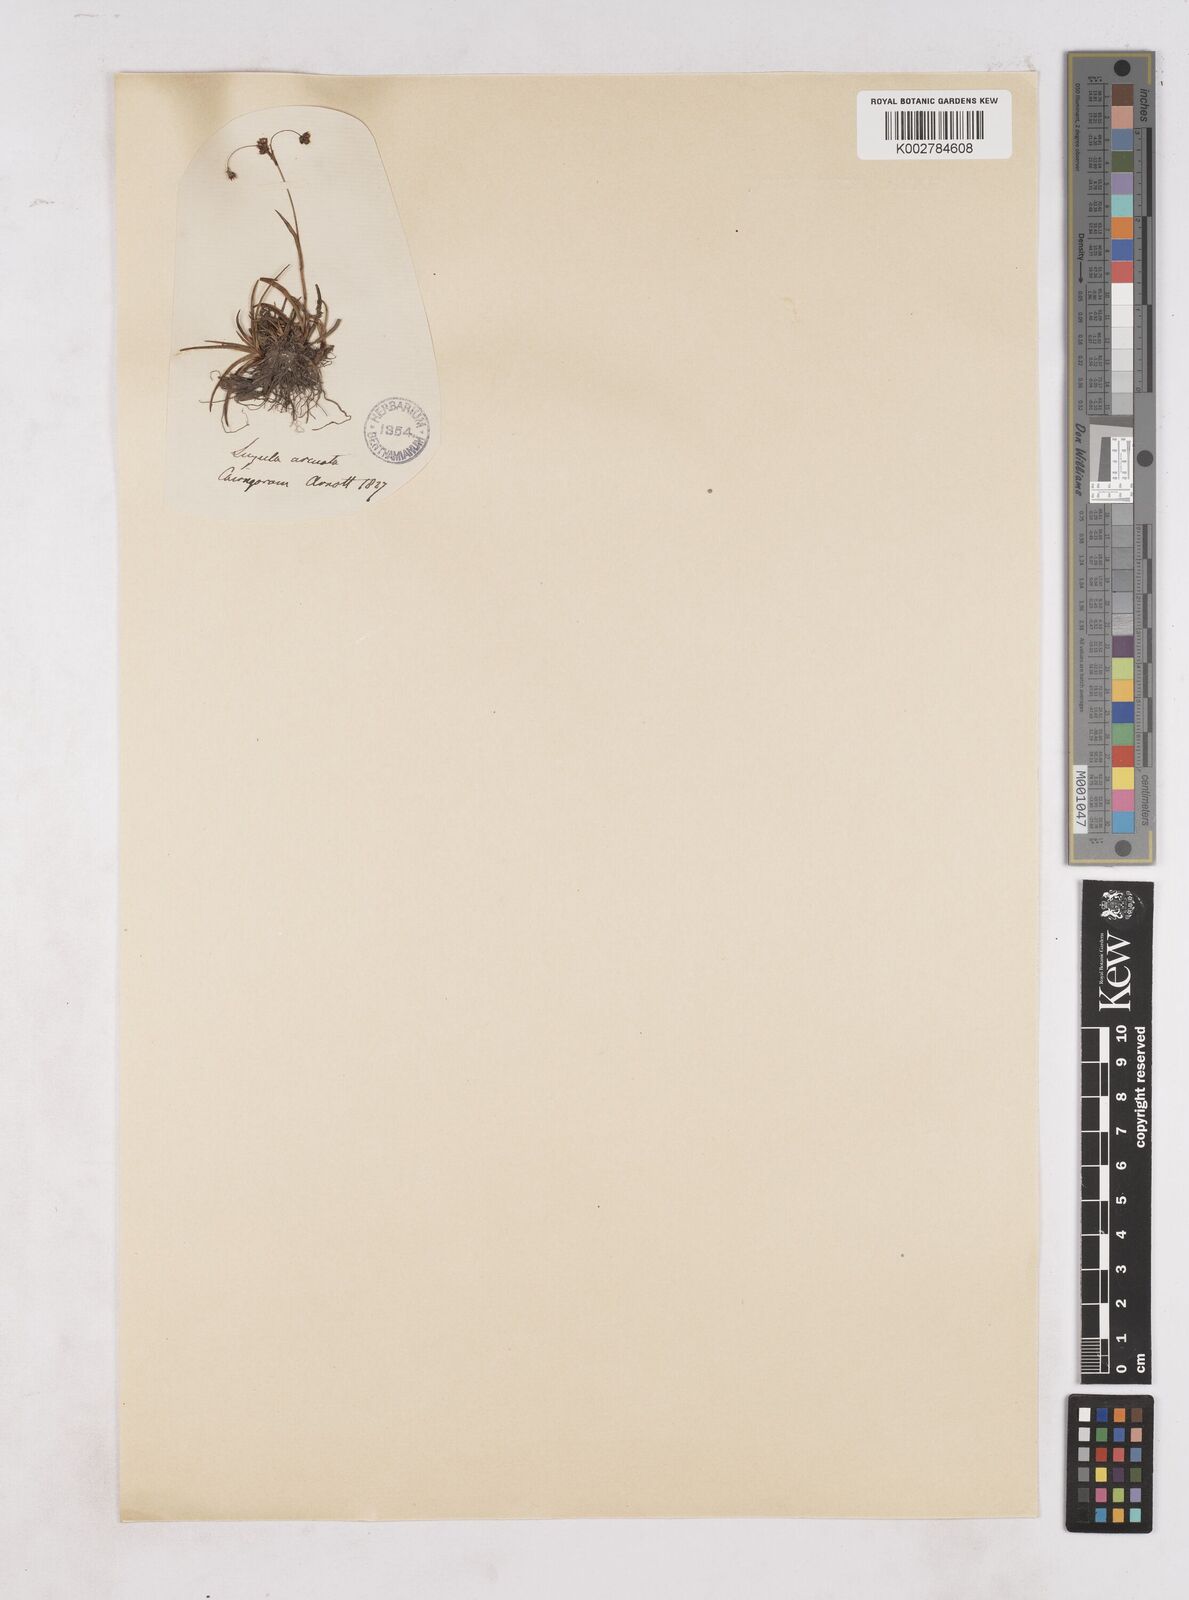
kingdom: Plantae
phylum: Tracheophyta
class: Liliopsida
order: Poales
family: Juncaceae
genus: Luzula
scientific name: Luzula arcuata
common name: Curved wood-rush
